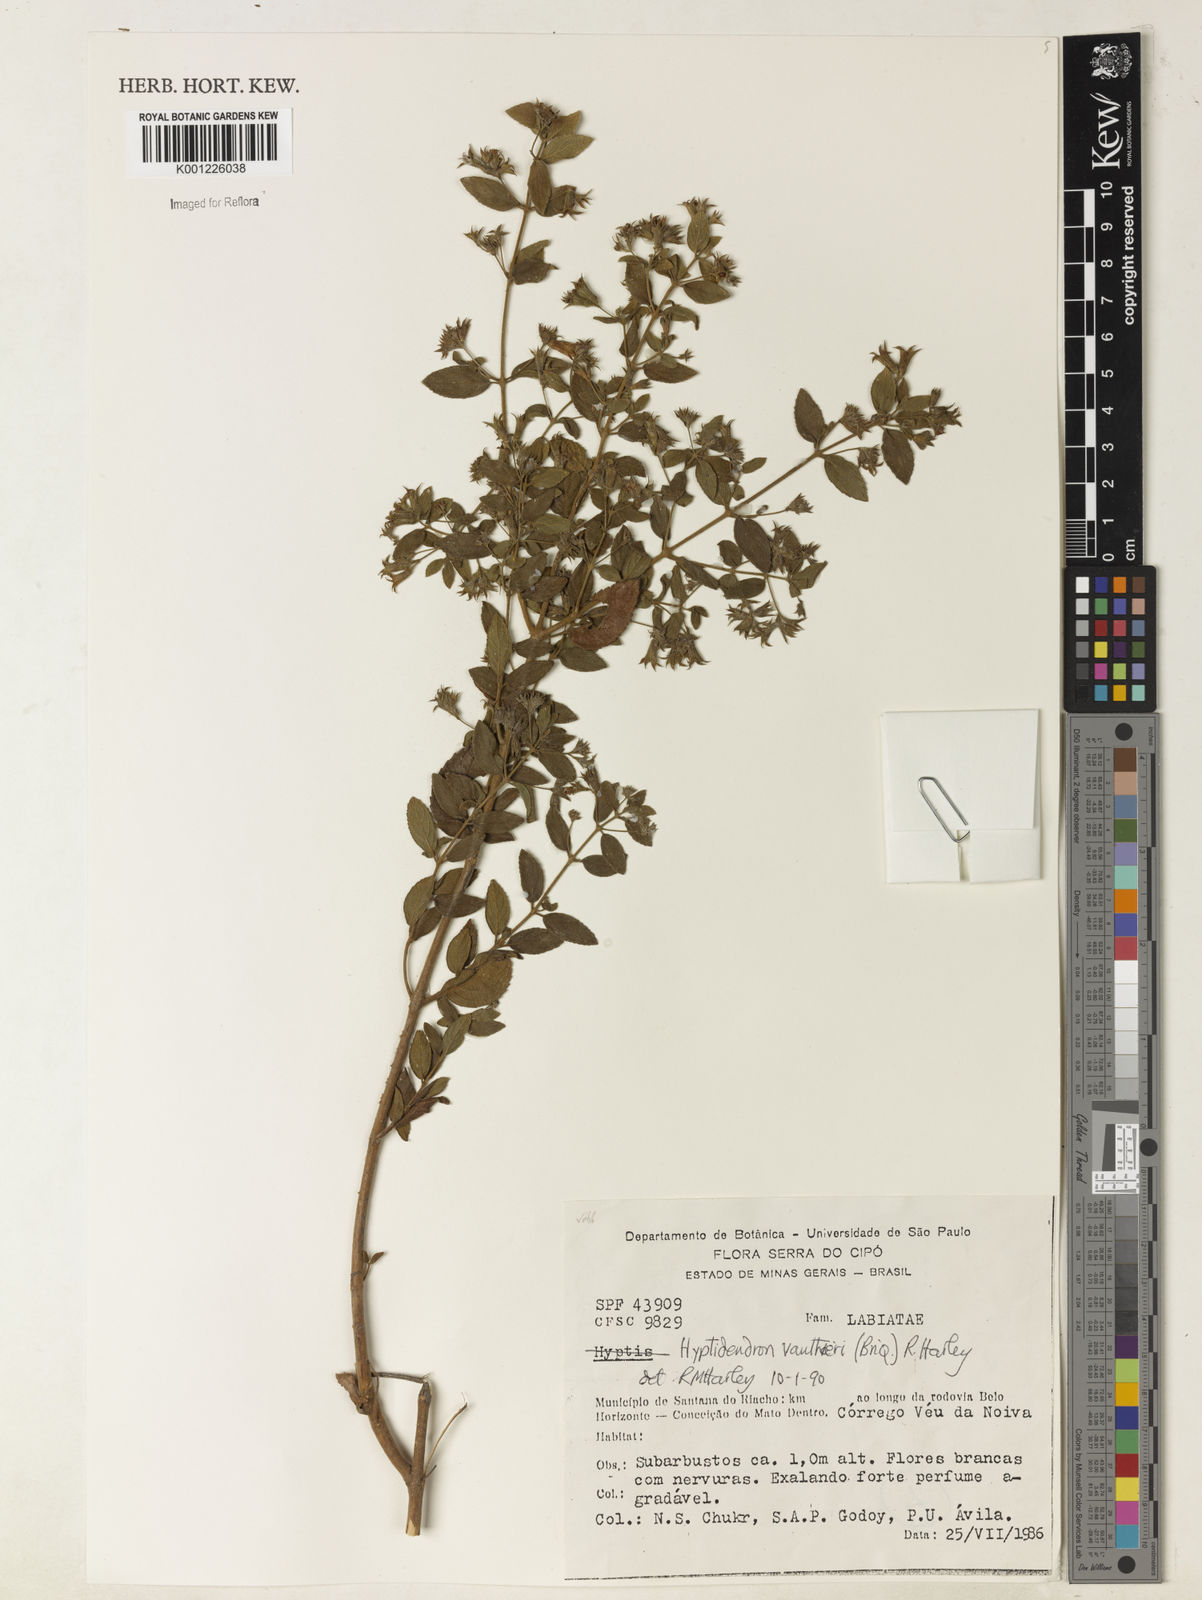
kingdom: Plantae
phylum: Tracheophyta
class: Magnoliopsida
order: Lamiales
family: Lamiaceae
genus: Hyptidendron
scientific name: Hyptidendron vauthieri
